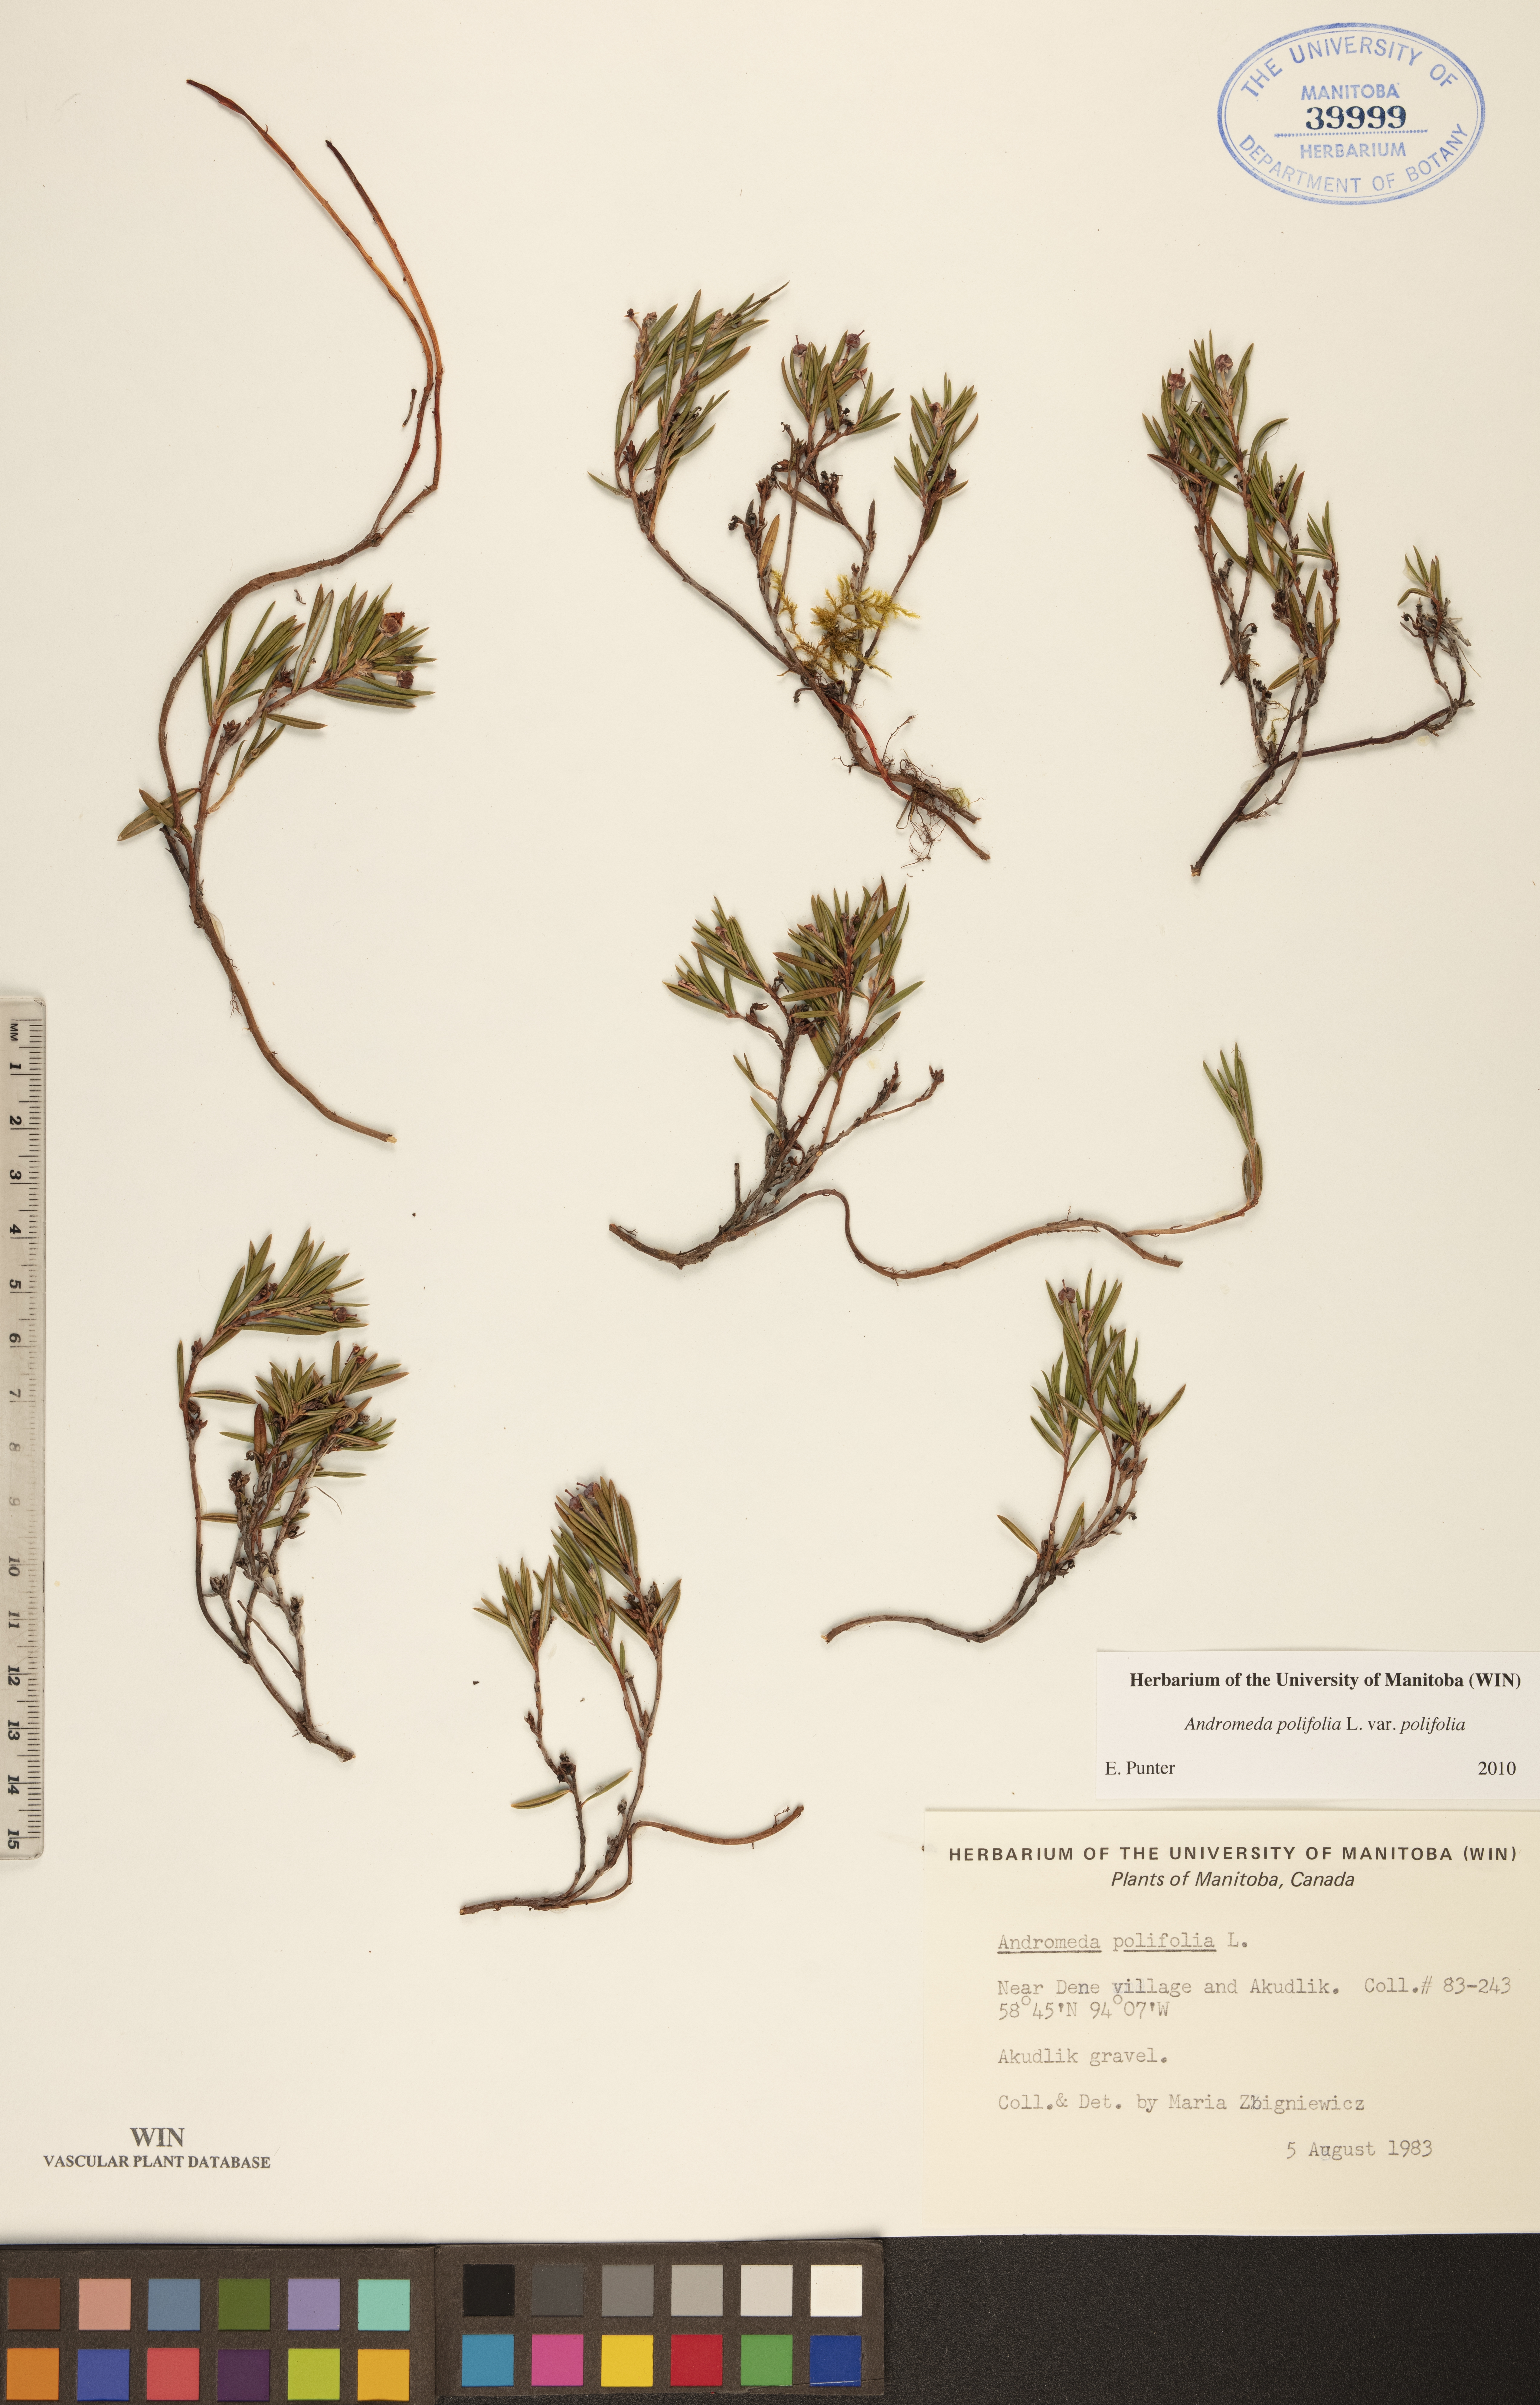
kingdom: Plantae
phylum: Tracheophyta
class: Magnoliopsida
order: Ericales
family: Ericaceae
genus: Andromeda
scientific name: Andromeda polifolia
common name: Bog-rosemary
